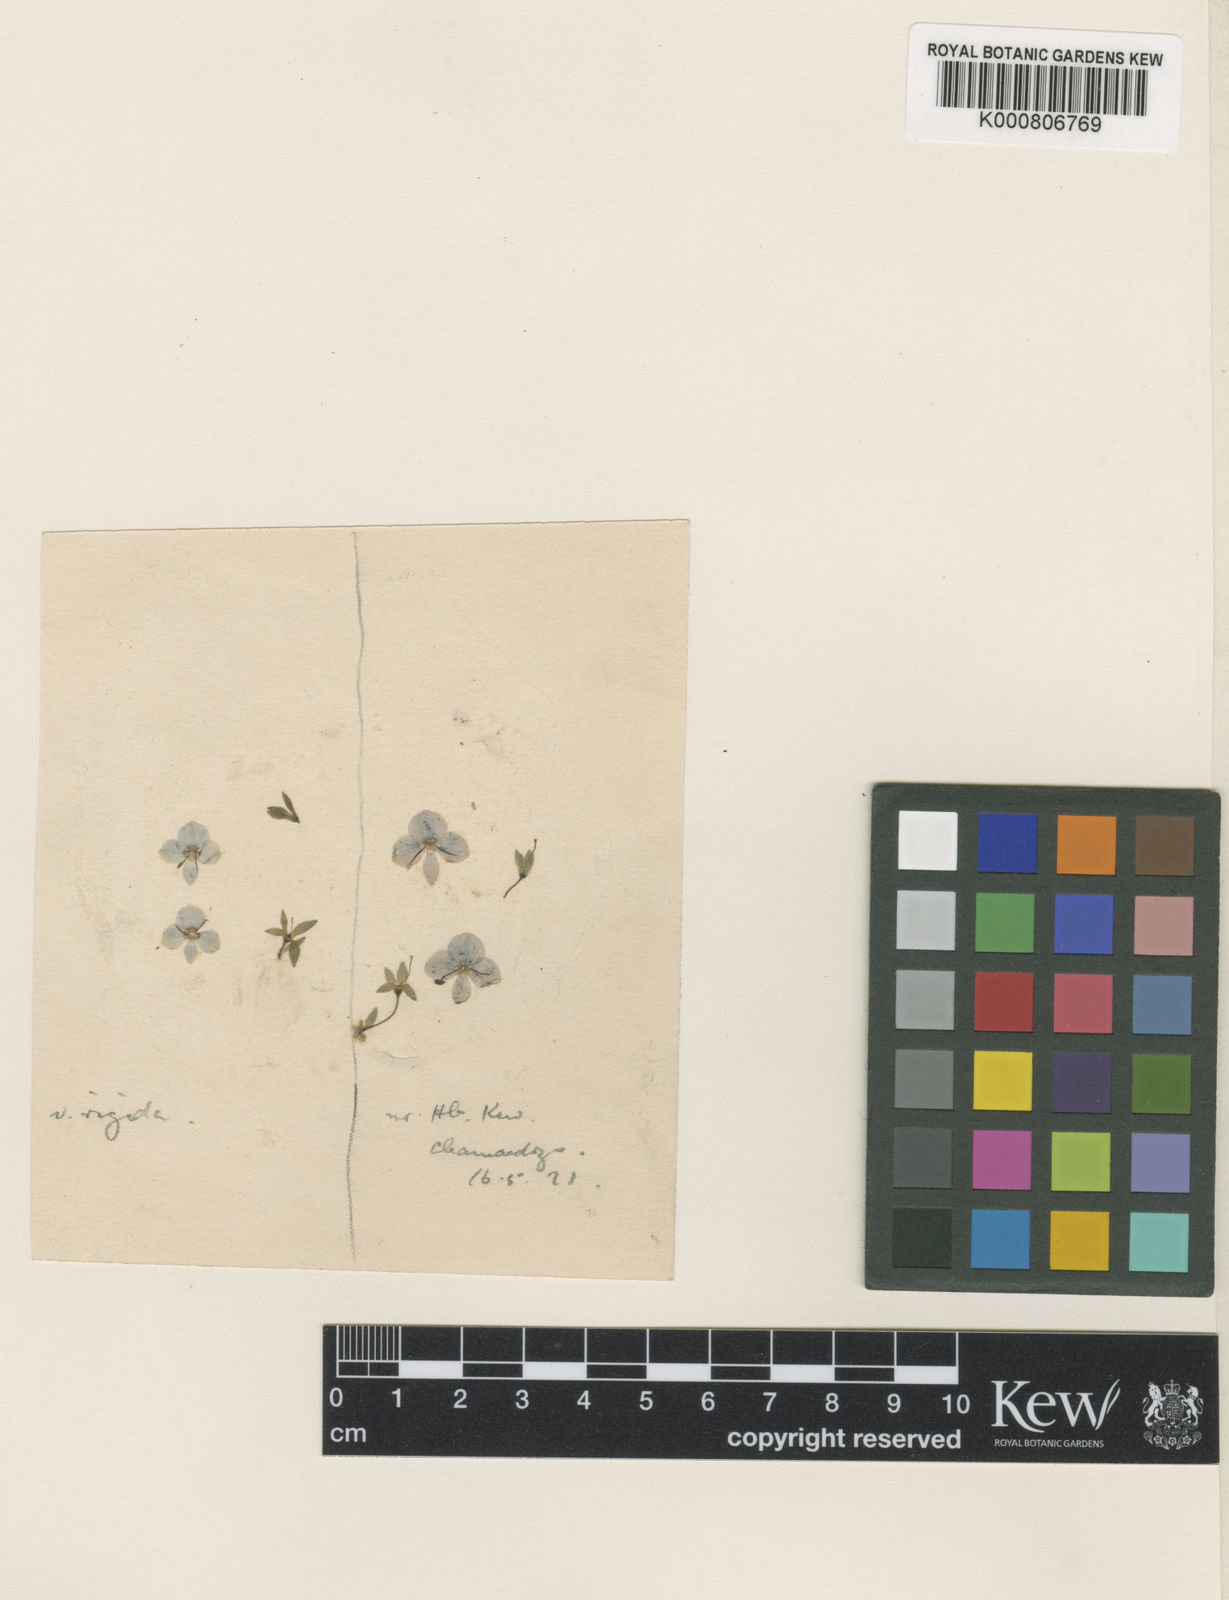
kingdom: Plantae
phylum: Tracheophyta
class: Magnoliopsida
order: Lamiales
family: Plantaginaceae
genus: Veronica
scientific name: Veronica chamaedrys
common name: Germander speedwell
